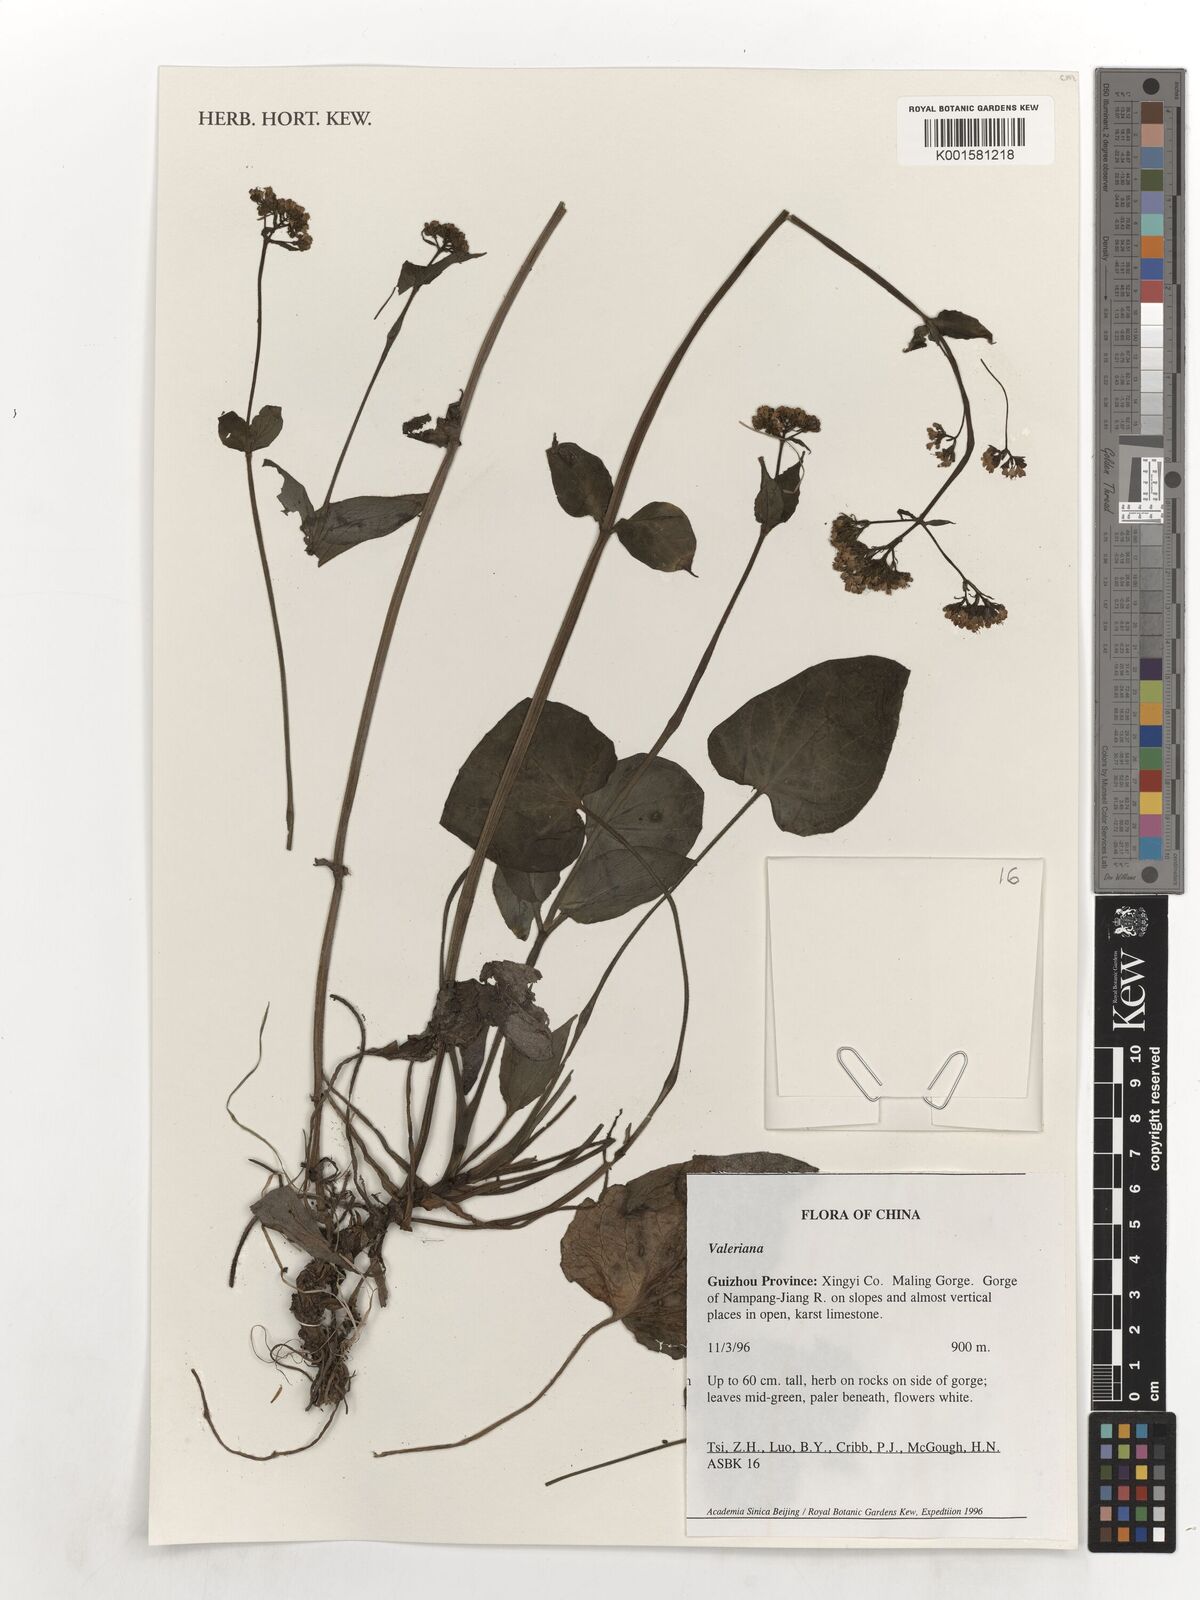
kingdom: Plantae
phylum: Tracheophyta
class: Magnoliopsida
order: Dipsacales
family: Caprifoliaceae
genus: Valeriana
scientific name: Valeriana
